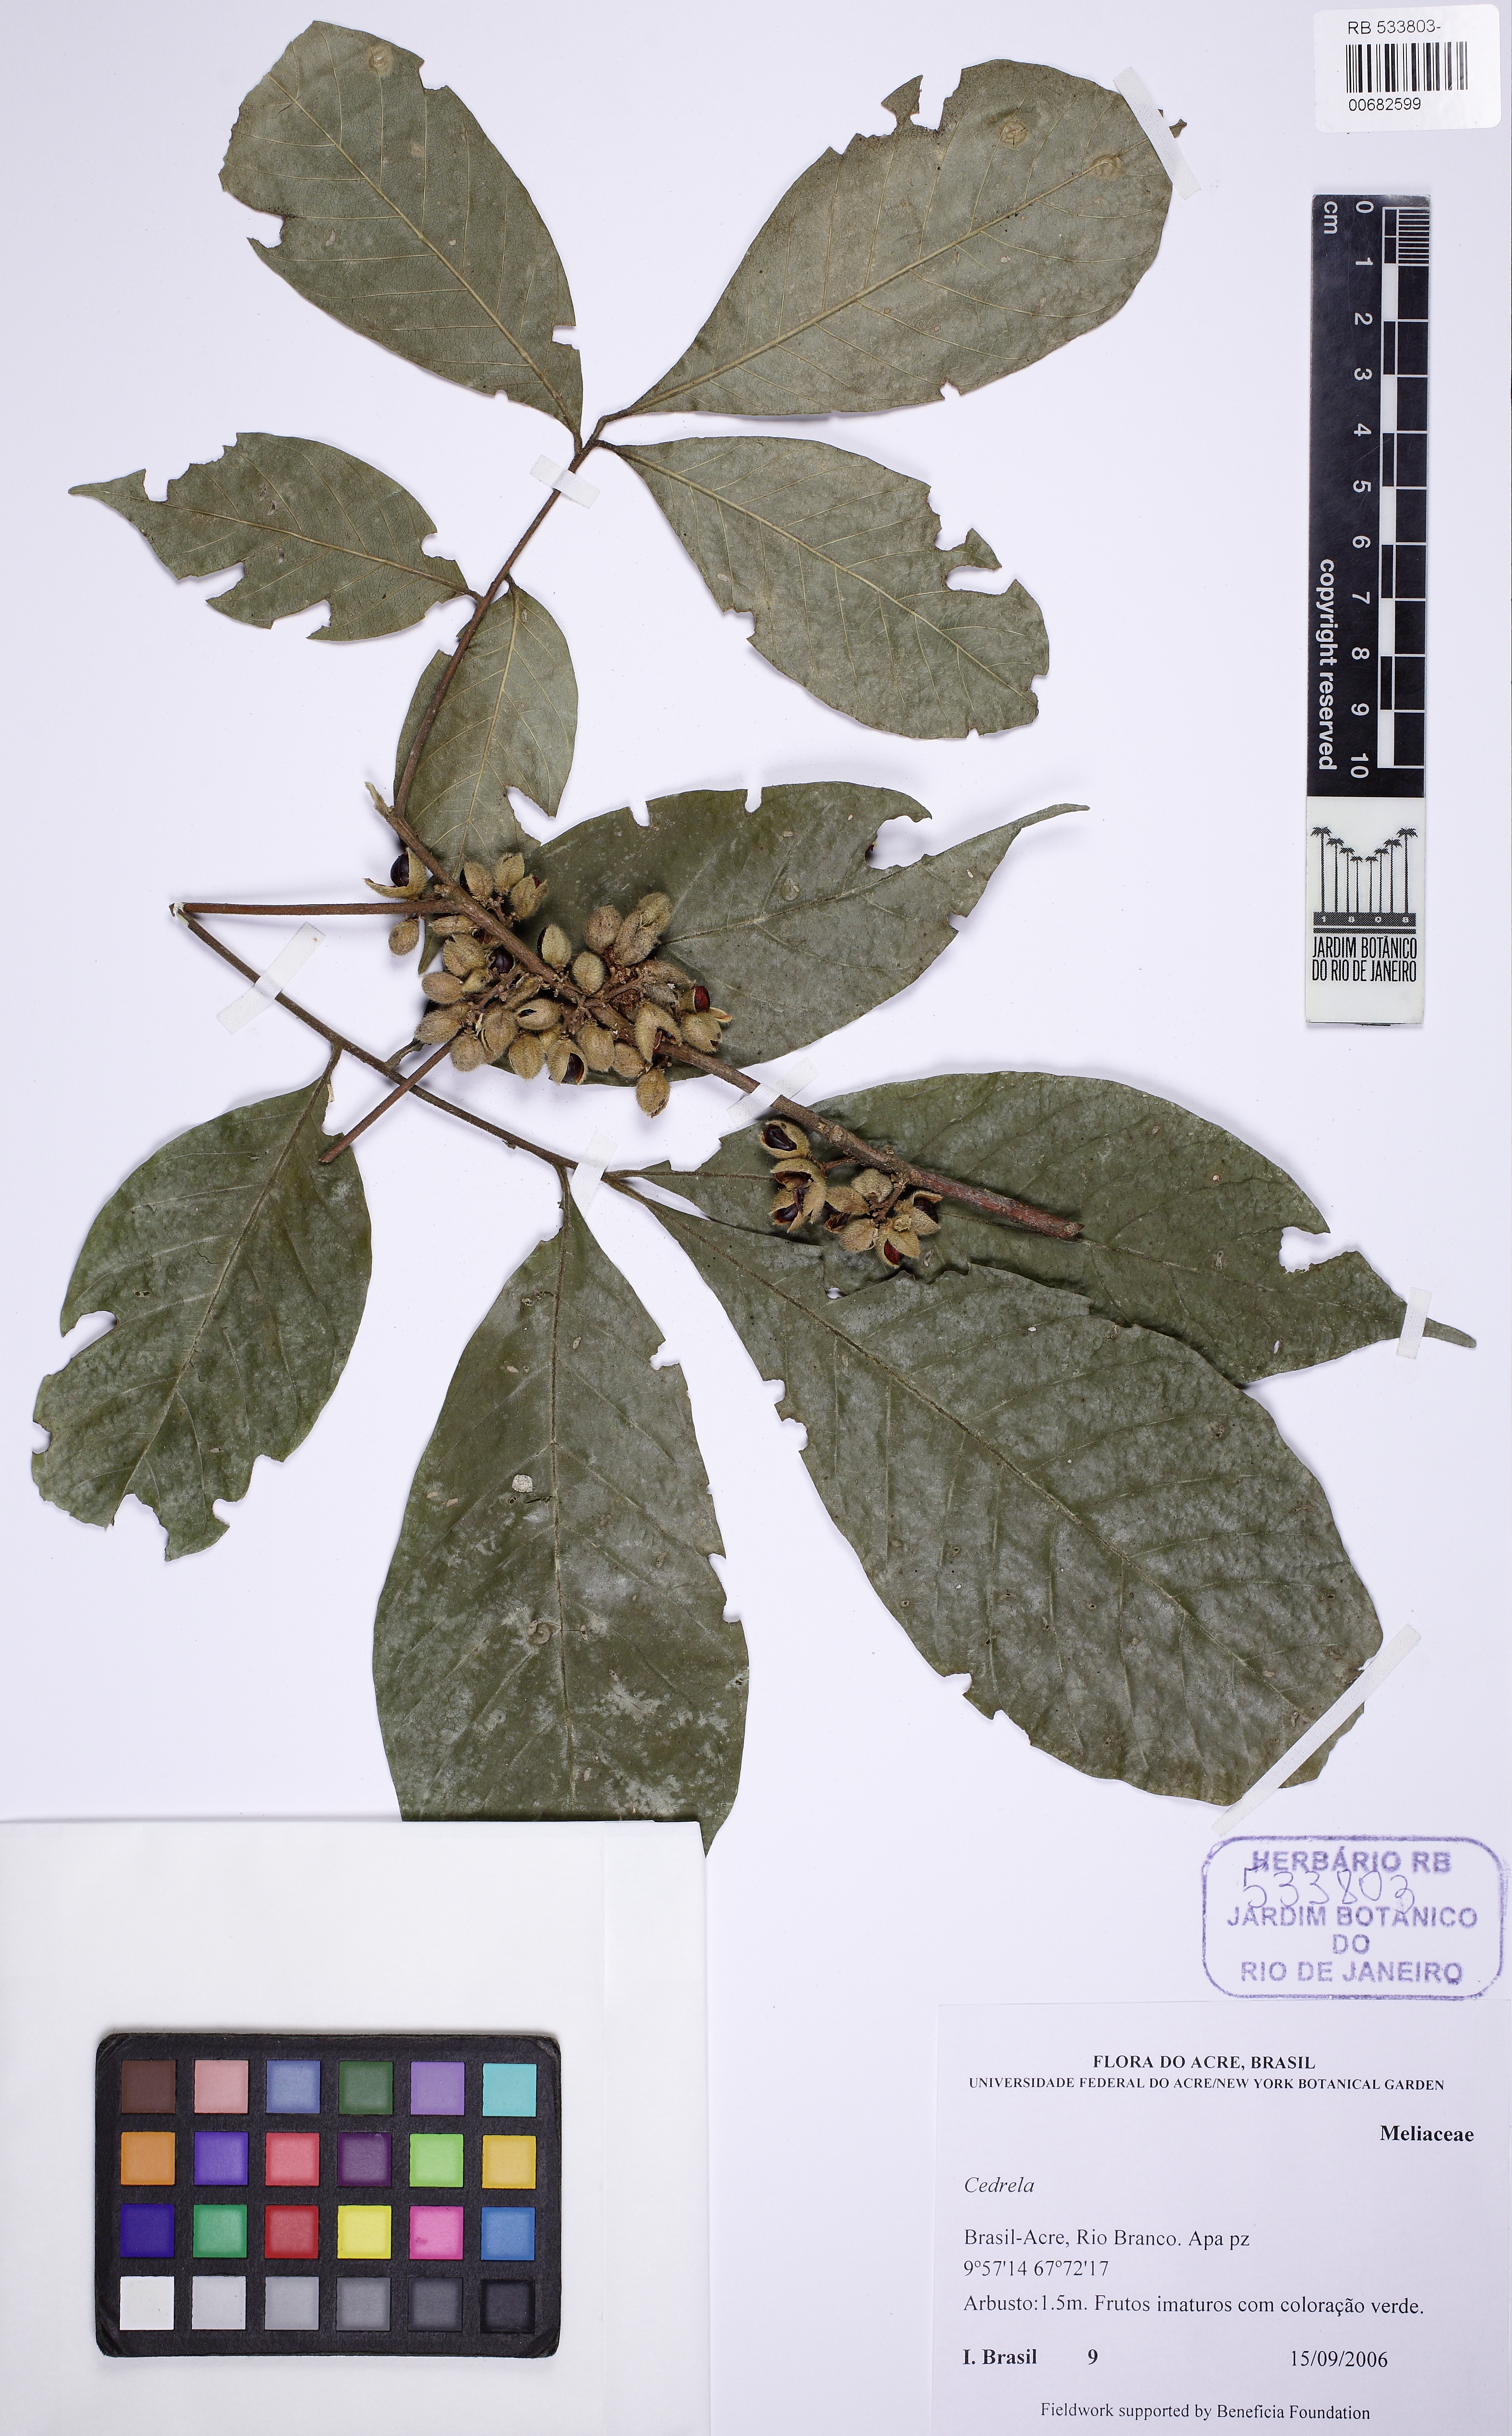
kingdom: Plantae
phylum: Tracheophyta
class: Magnoliopsida
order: Sapindales
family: Meliaceae
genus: Cedrela
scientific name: Cedrela
